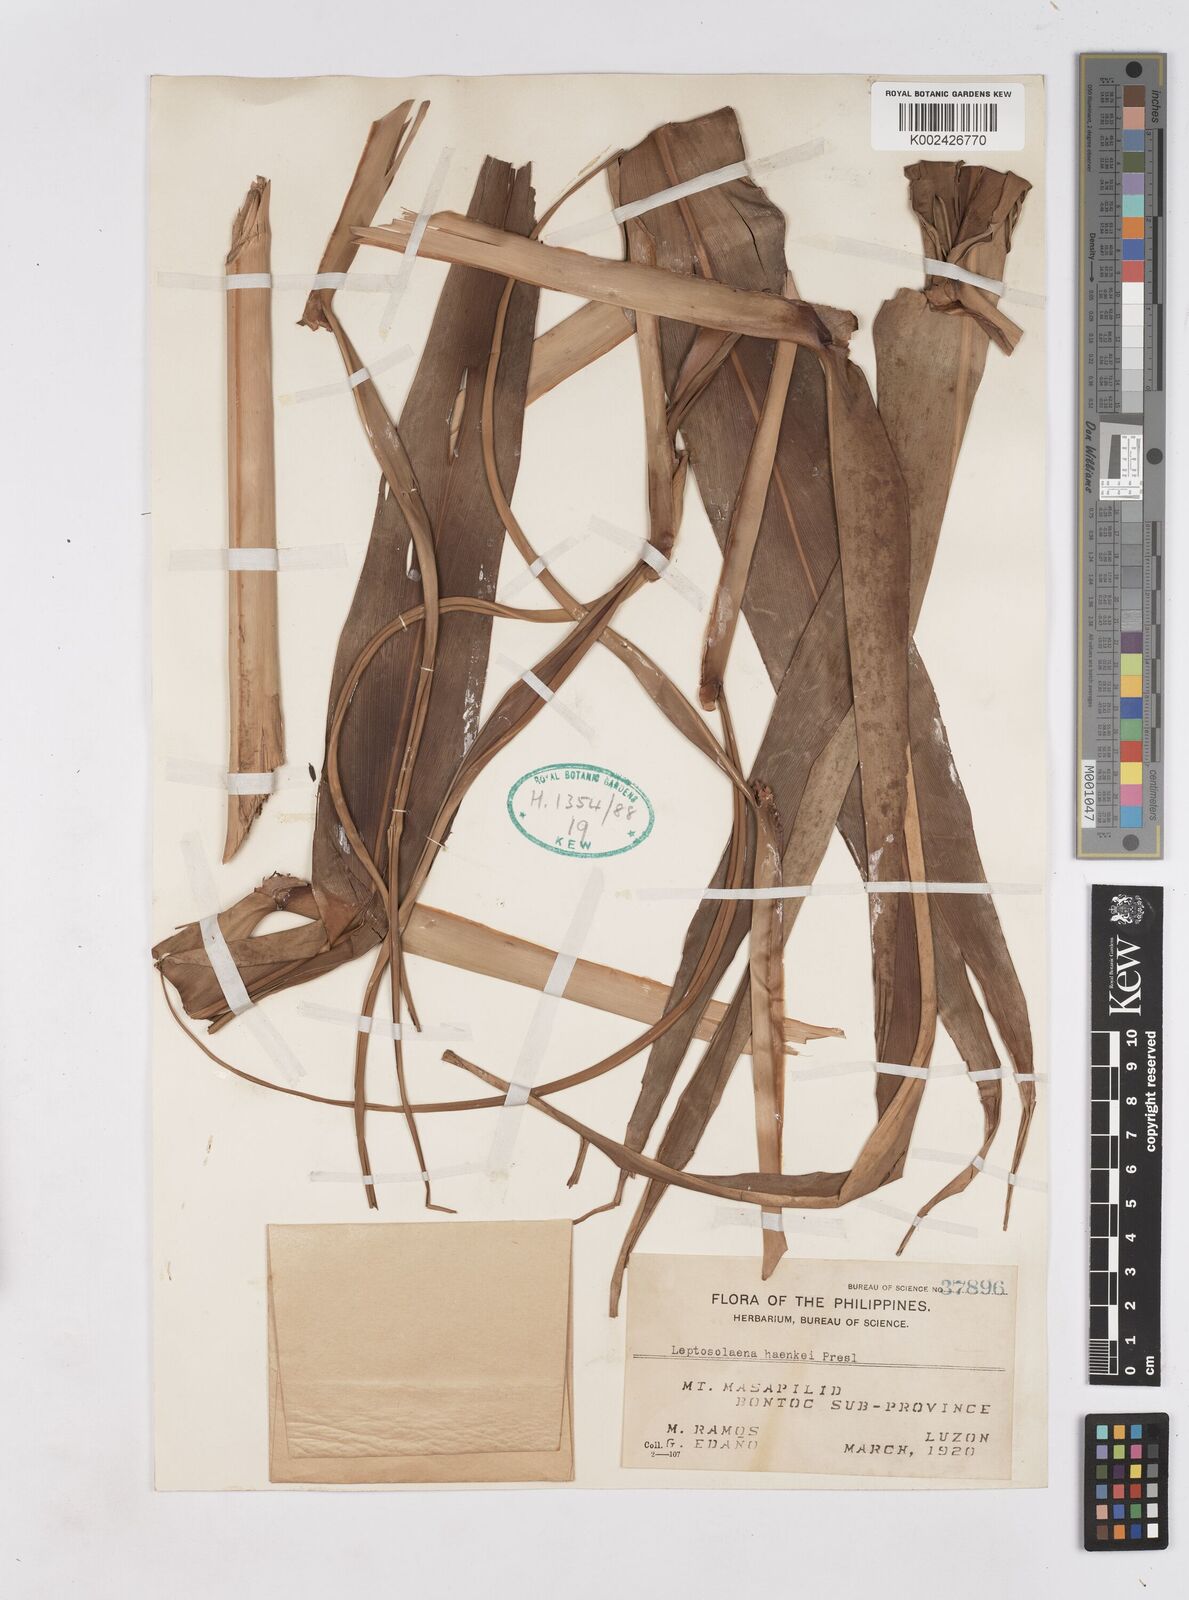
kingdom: Plantae
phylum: Tracheophyta
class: Liliopsida
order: Zingiberales
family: Zingiberaceae
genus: Leptosolena
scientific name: Leptosolena haenkei
